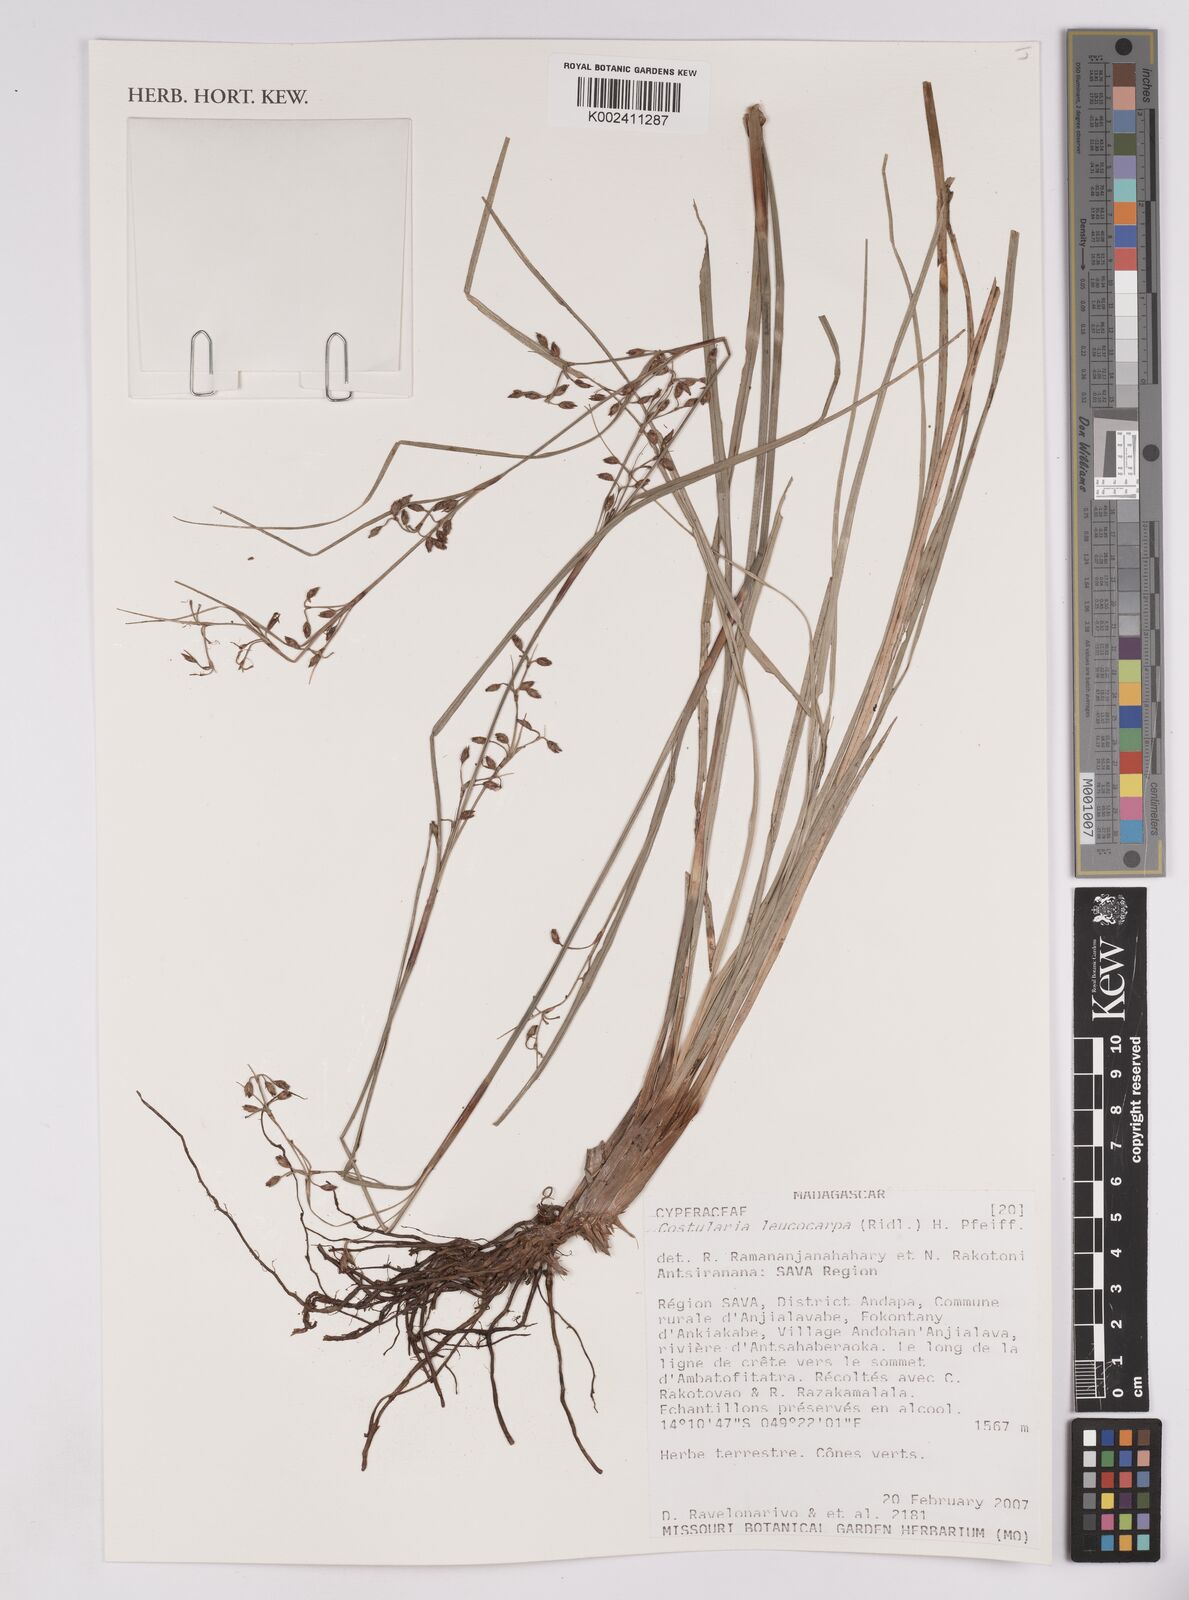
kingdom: Plantae
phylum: Tracheophyta
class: Liliopsida
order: Poales
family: Cyperaceae
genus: Costularia
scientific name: Costularia leucocarpa
